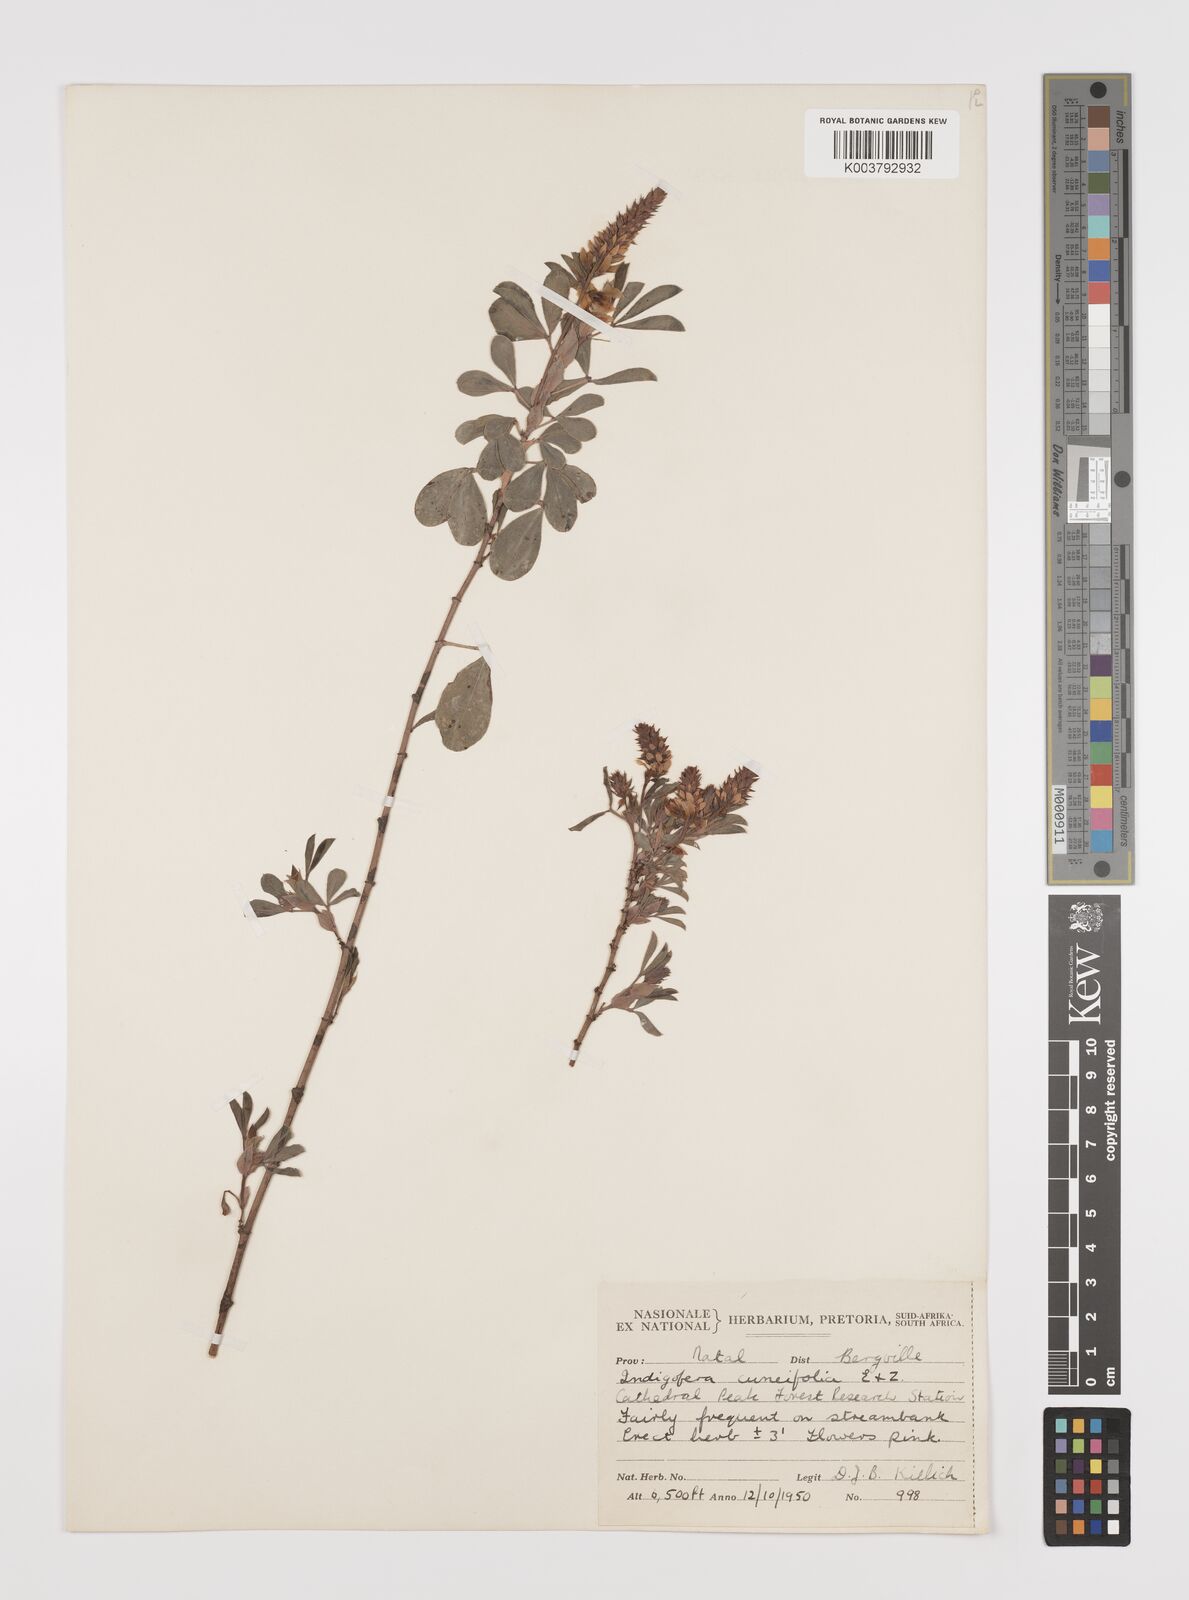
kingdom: Plantae
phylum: Tracheophyta
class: Magnoliopsida
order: Fabales
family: Fabaceae
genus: Indigofera
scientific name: Indigofera cuneifolia
